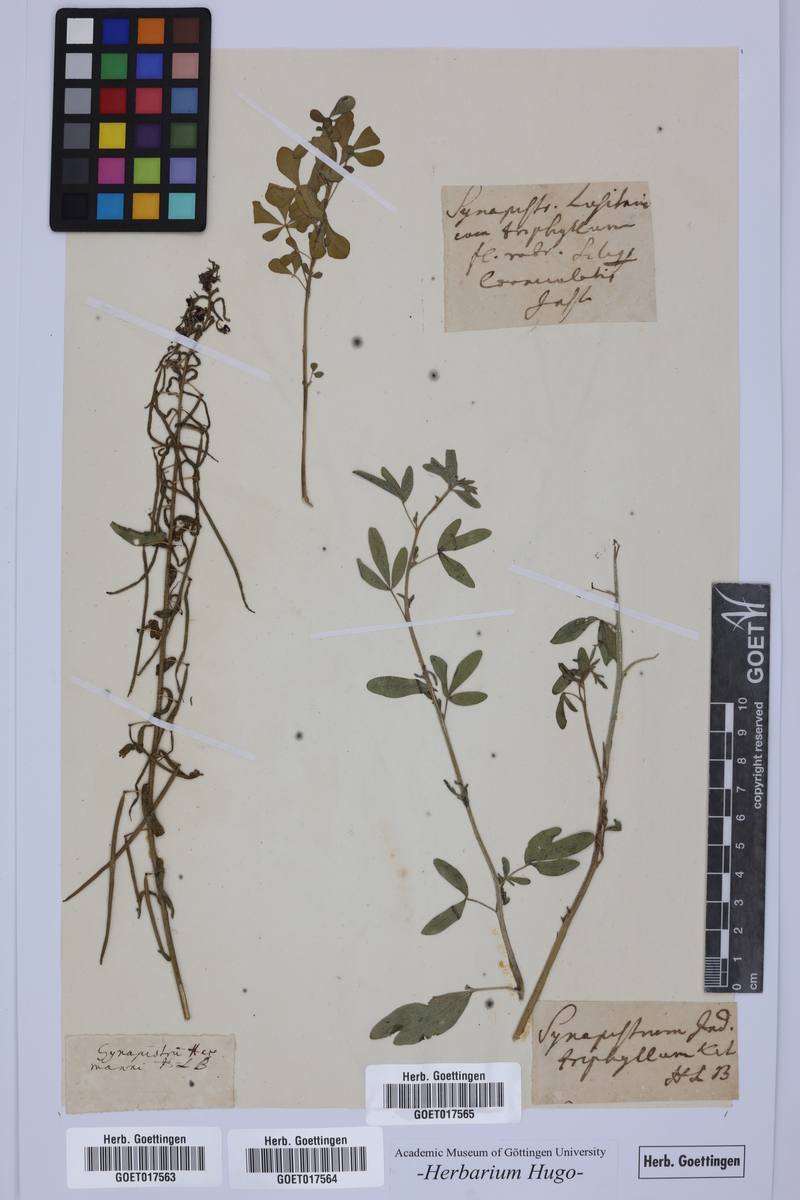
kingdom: Plantae
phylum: Tracheophyta
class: Magnoliopsida
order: Brassicales
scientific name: Brassicales
